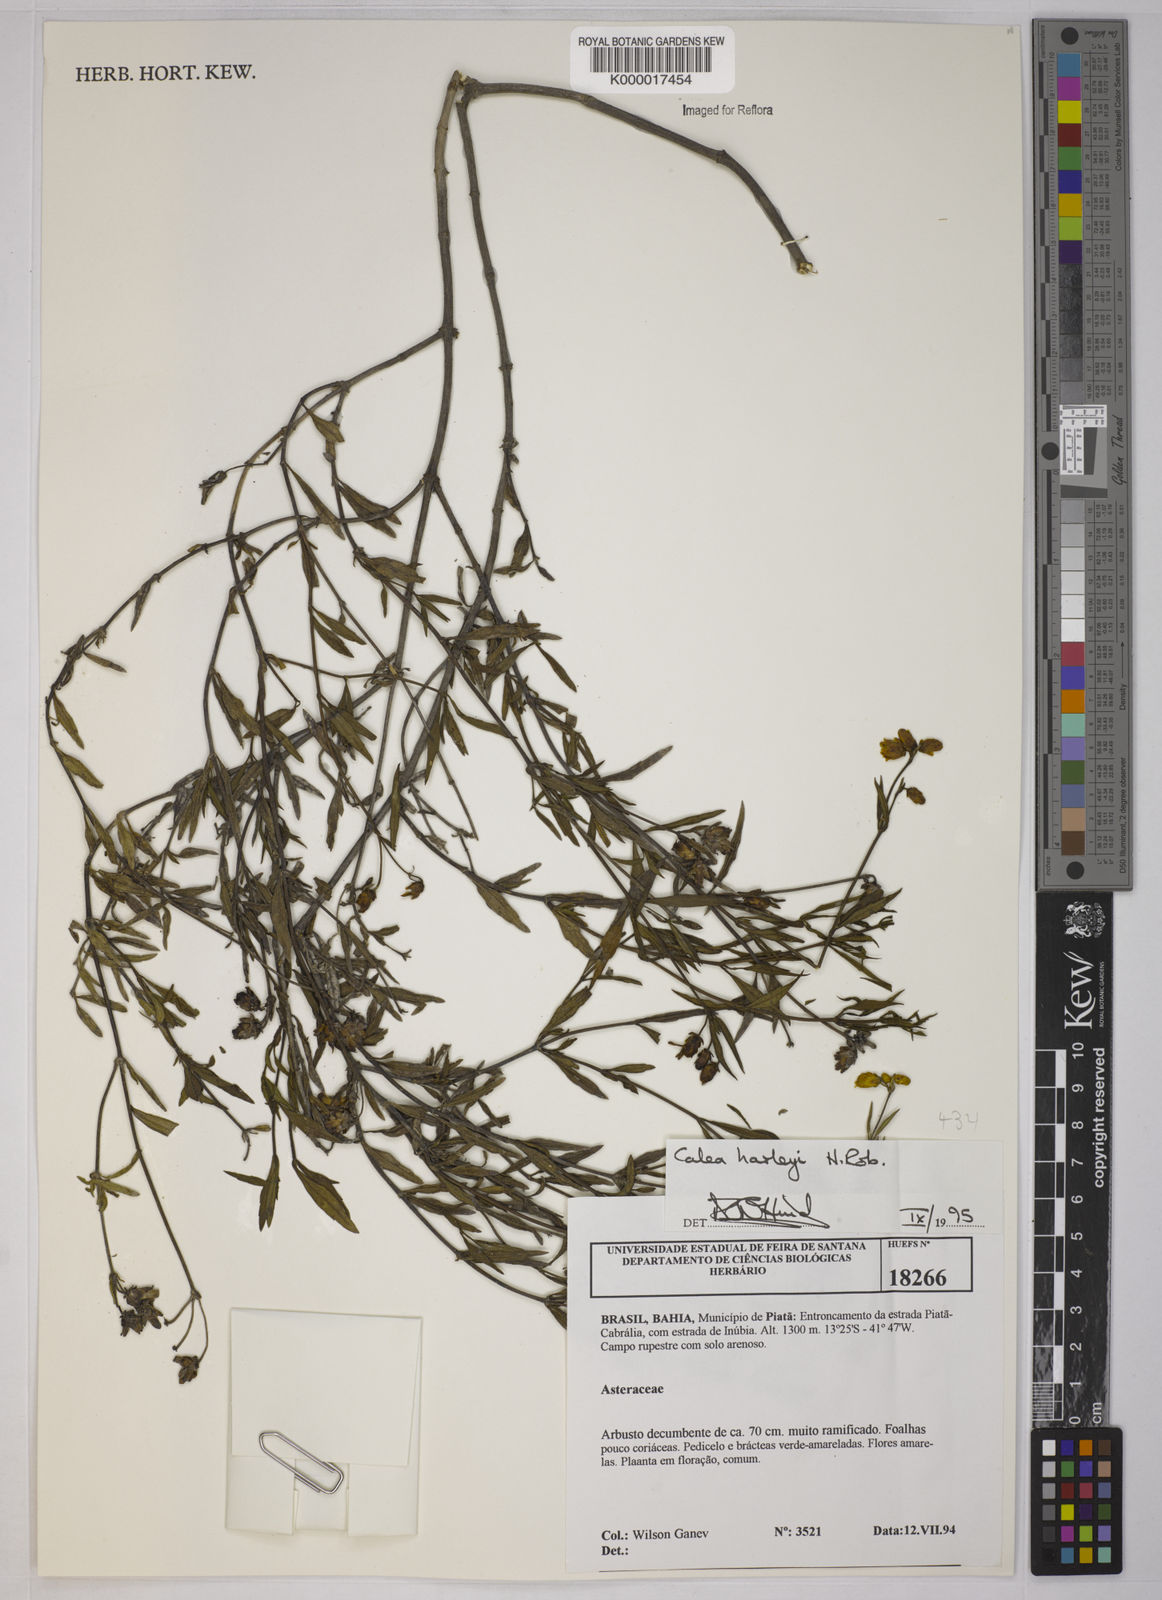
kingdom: Plantae
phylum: Tracheophyta
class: Magnoliopsida
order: Asterales
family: Asteraceae
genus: Calea
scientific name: Calea harleyi
